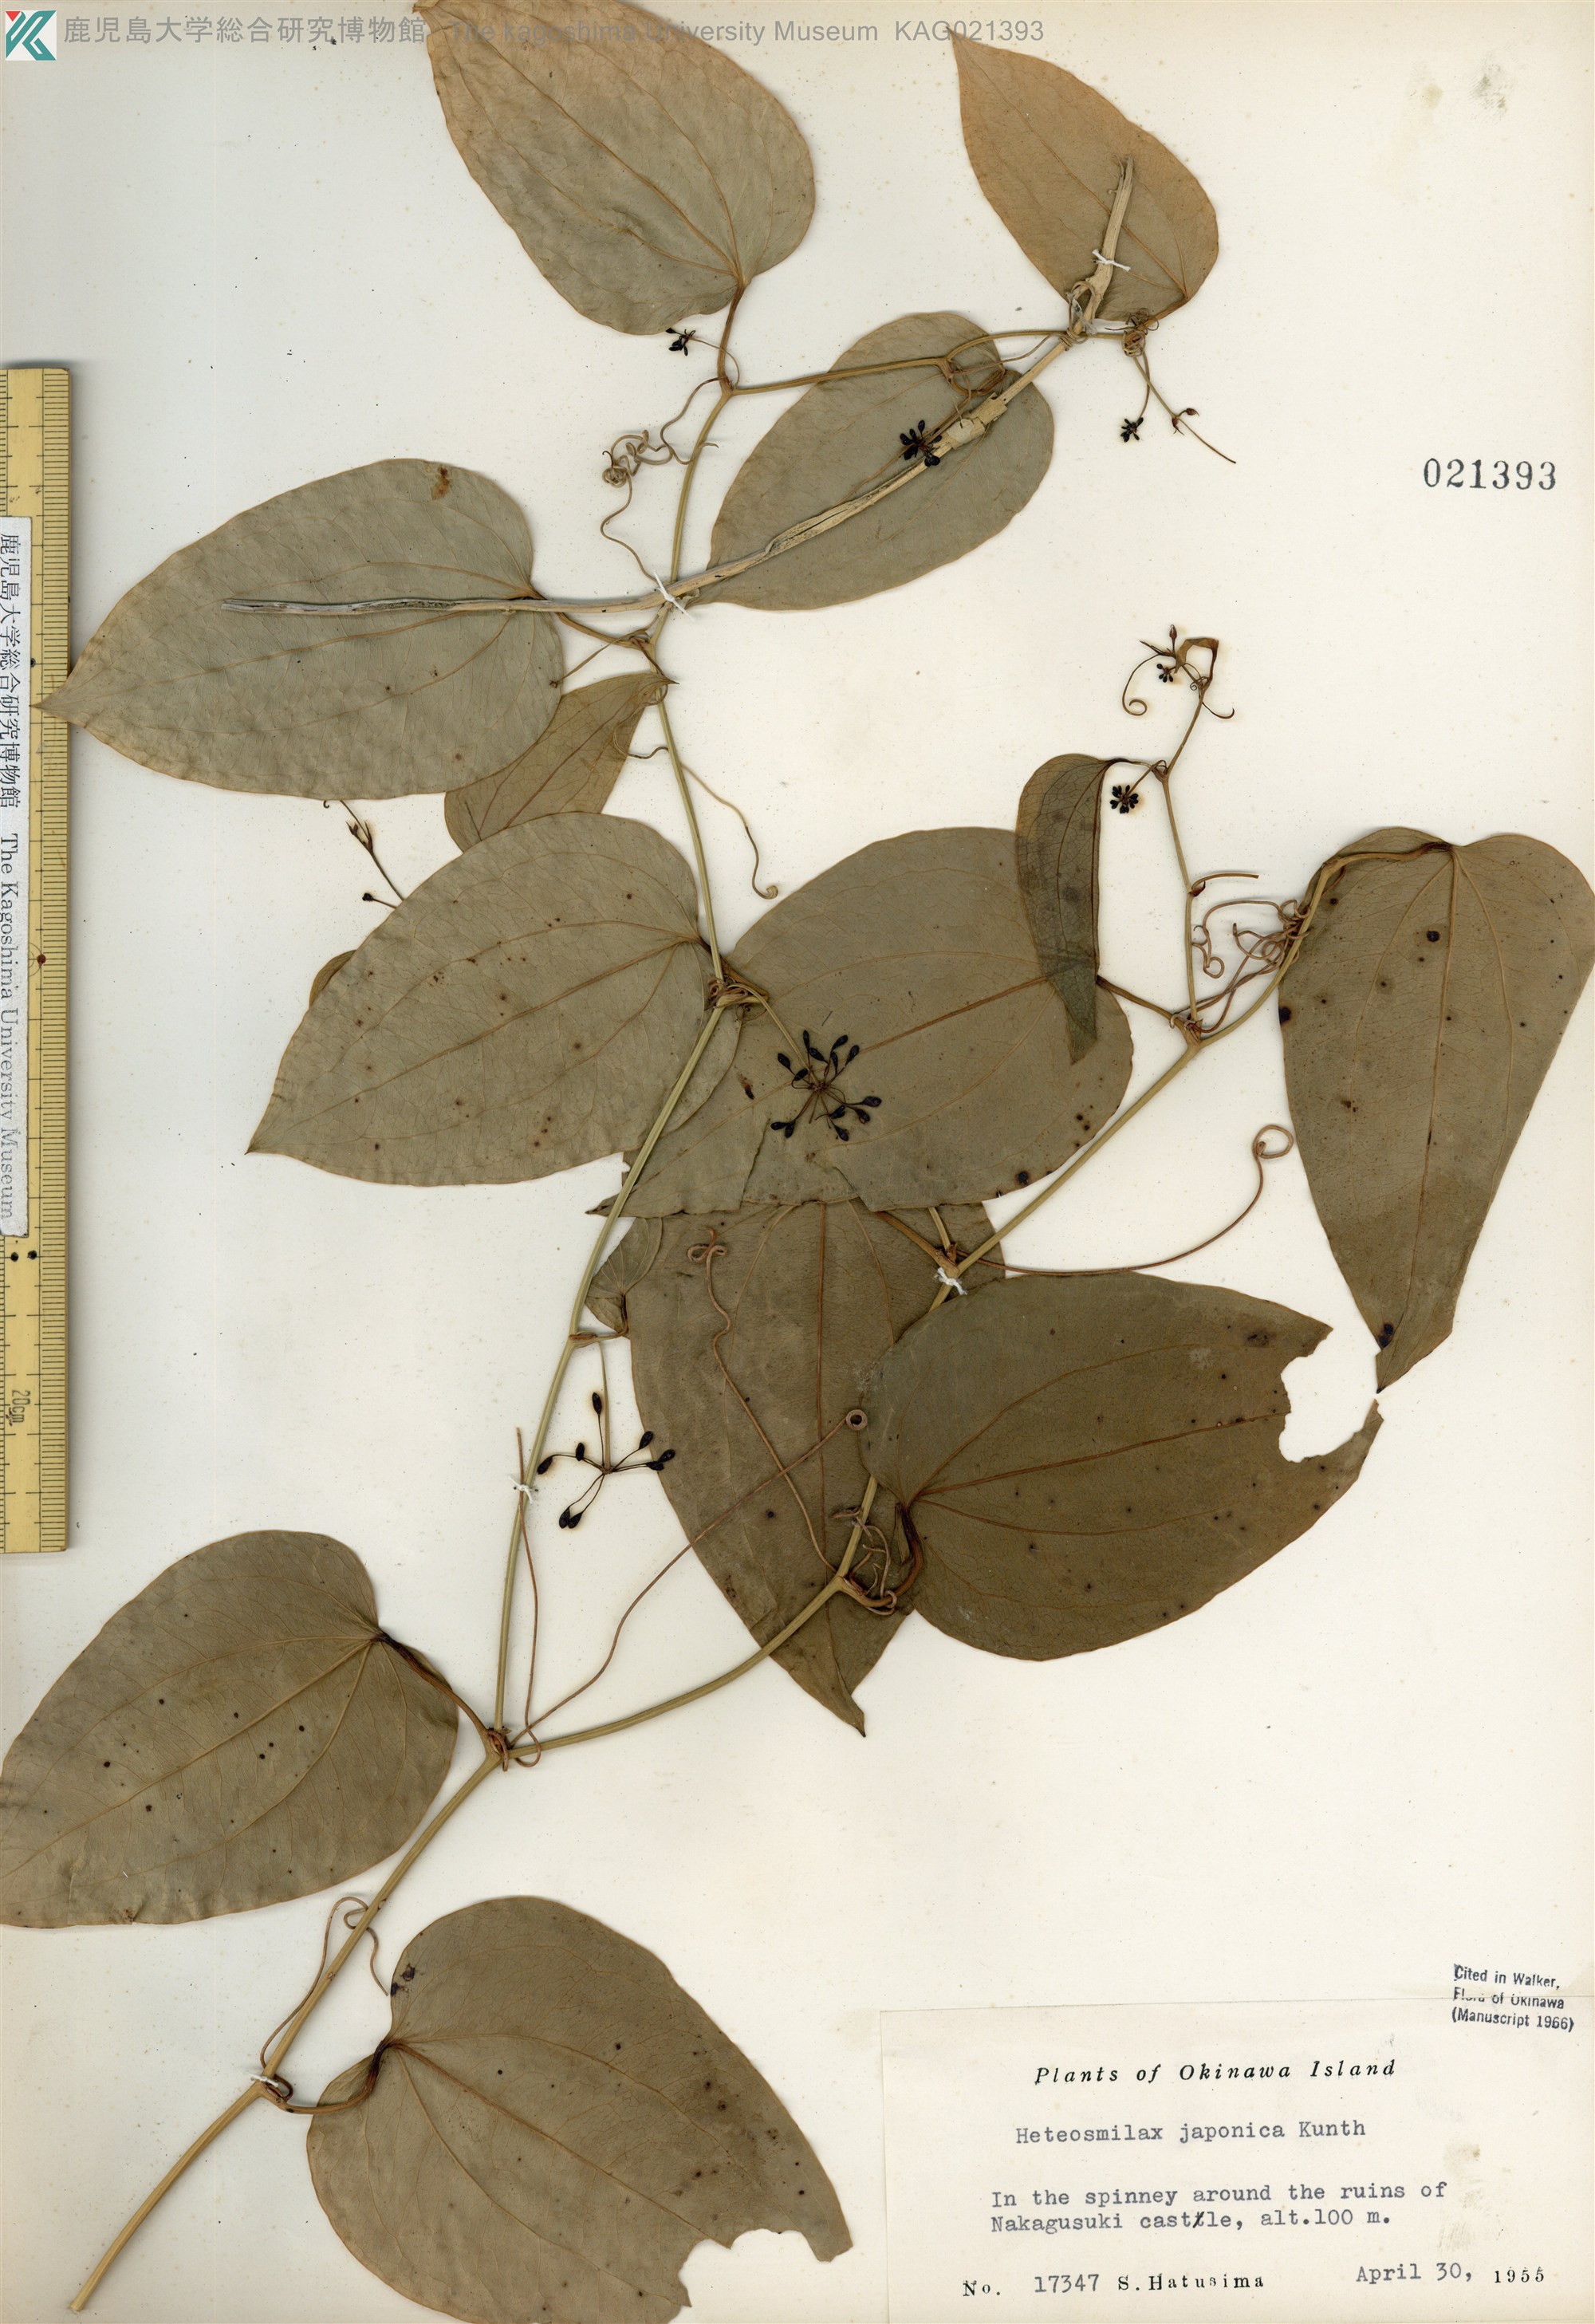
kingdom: Plantae
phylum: Tracheophyta
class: Liliopsida
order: Liliales
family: Smilacaceae
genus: Smilax
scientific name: Smilax insularis
